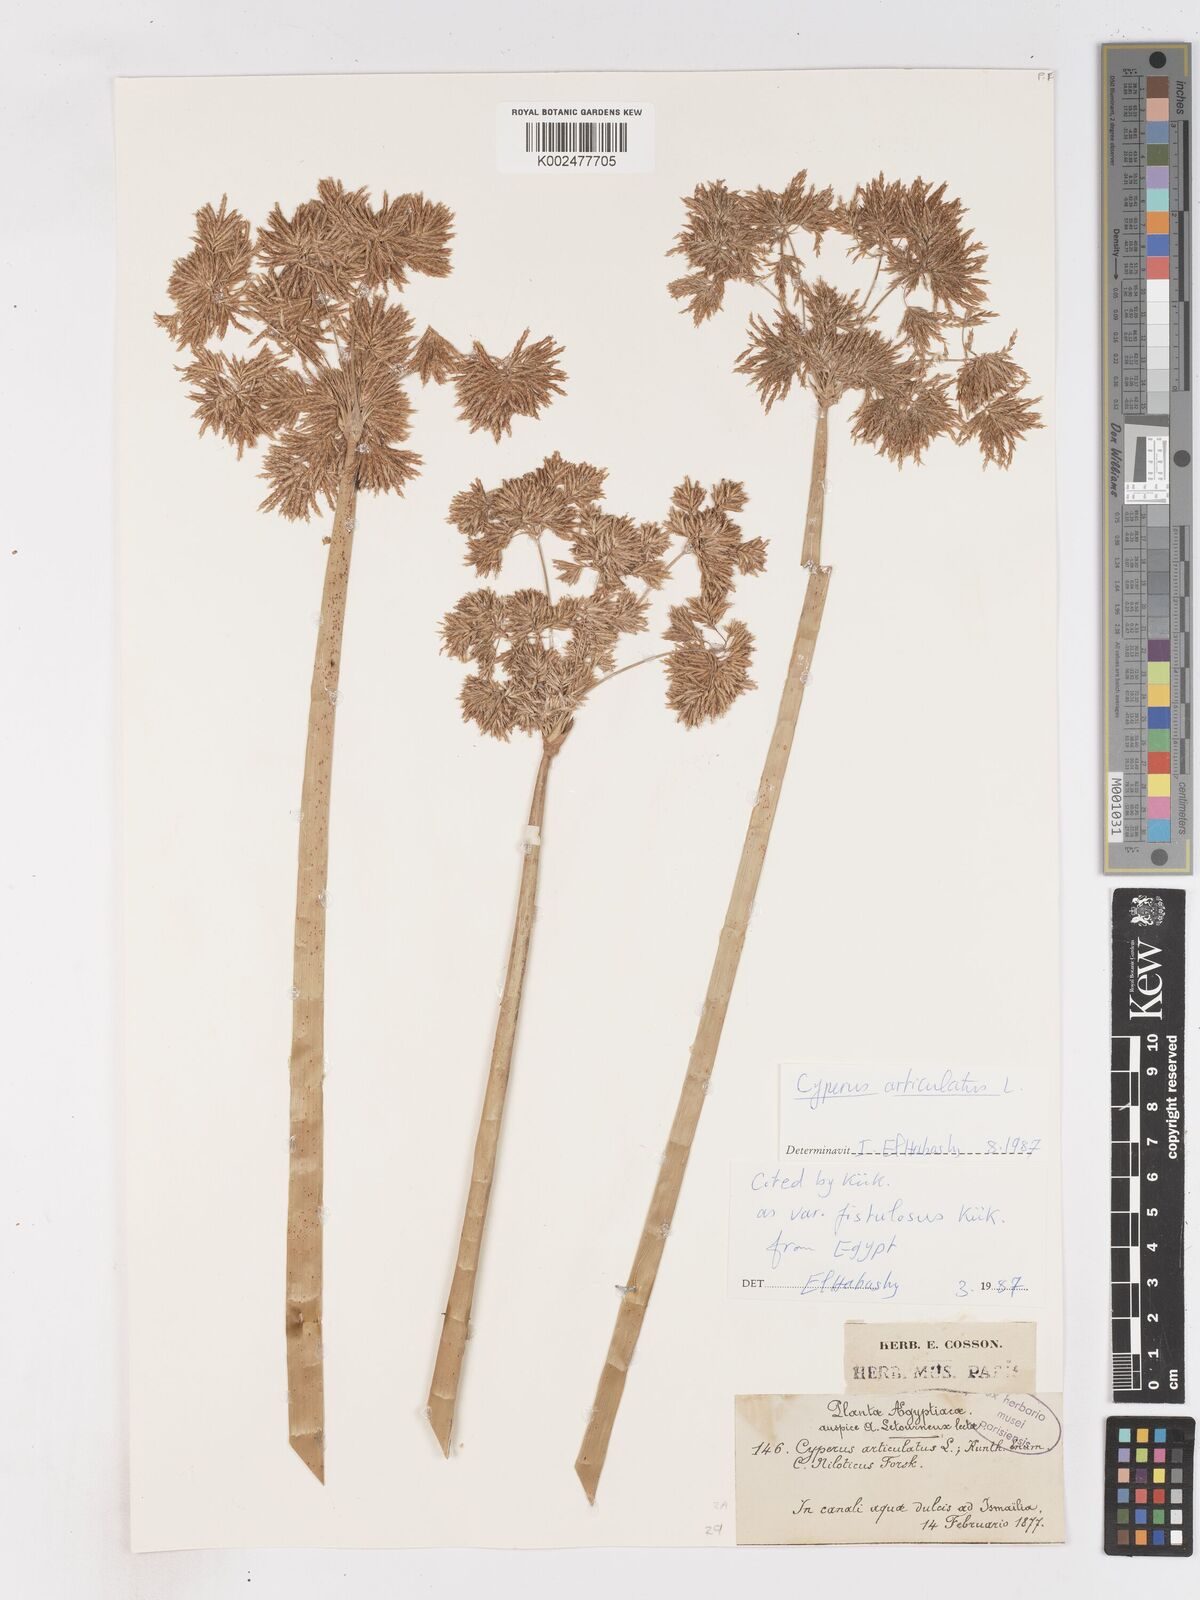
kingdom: Plantae
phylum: Tracheophyta
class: Liliopsida
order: Poales
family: Cyperaceae
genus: Cyperus
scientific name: Cyperus articulatus
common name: Jointed flatsedge
